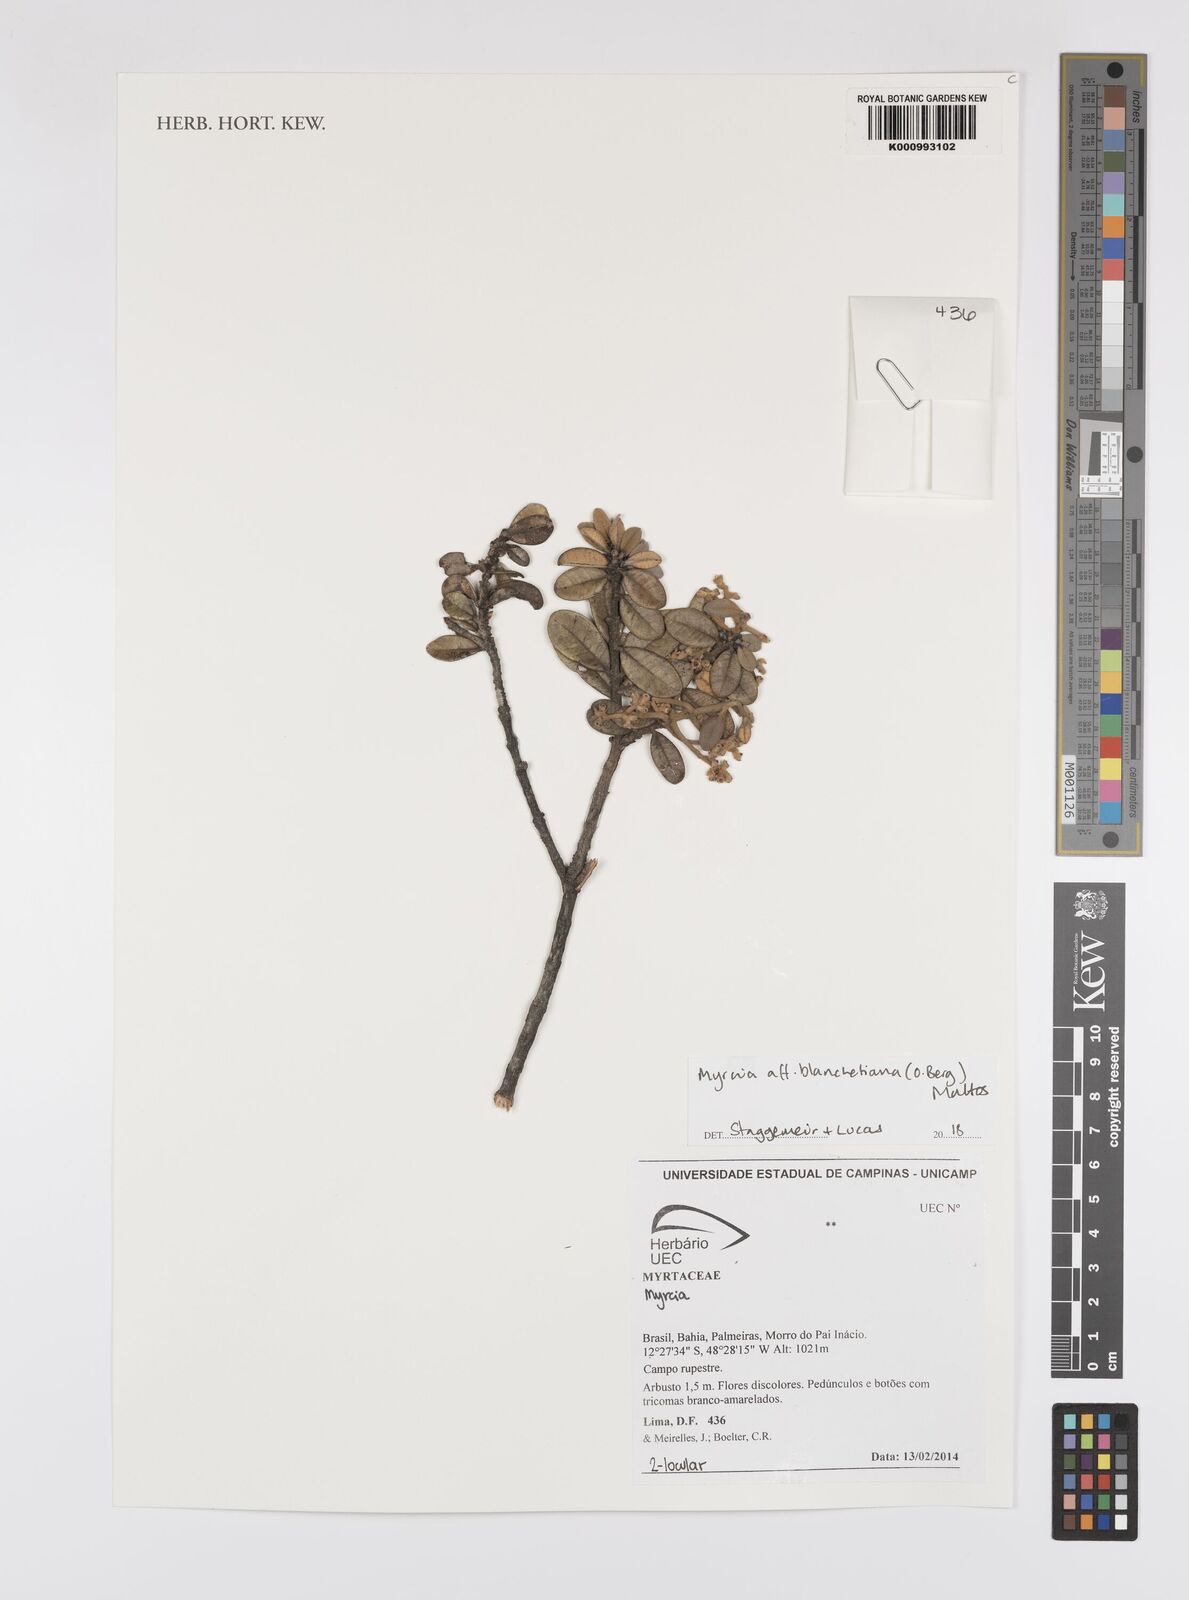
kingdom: Plantae
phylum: Tracheophyta
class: Magnoliopsida
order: Myrtales
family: Myrtaceae
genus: Myrcia
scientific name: Myrcia blanchetiana
